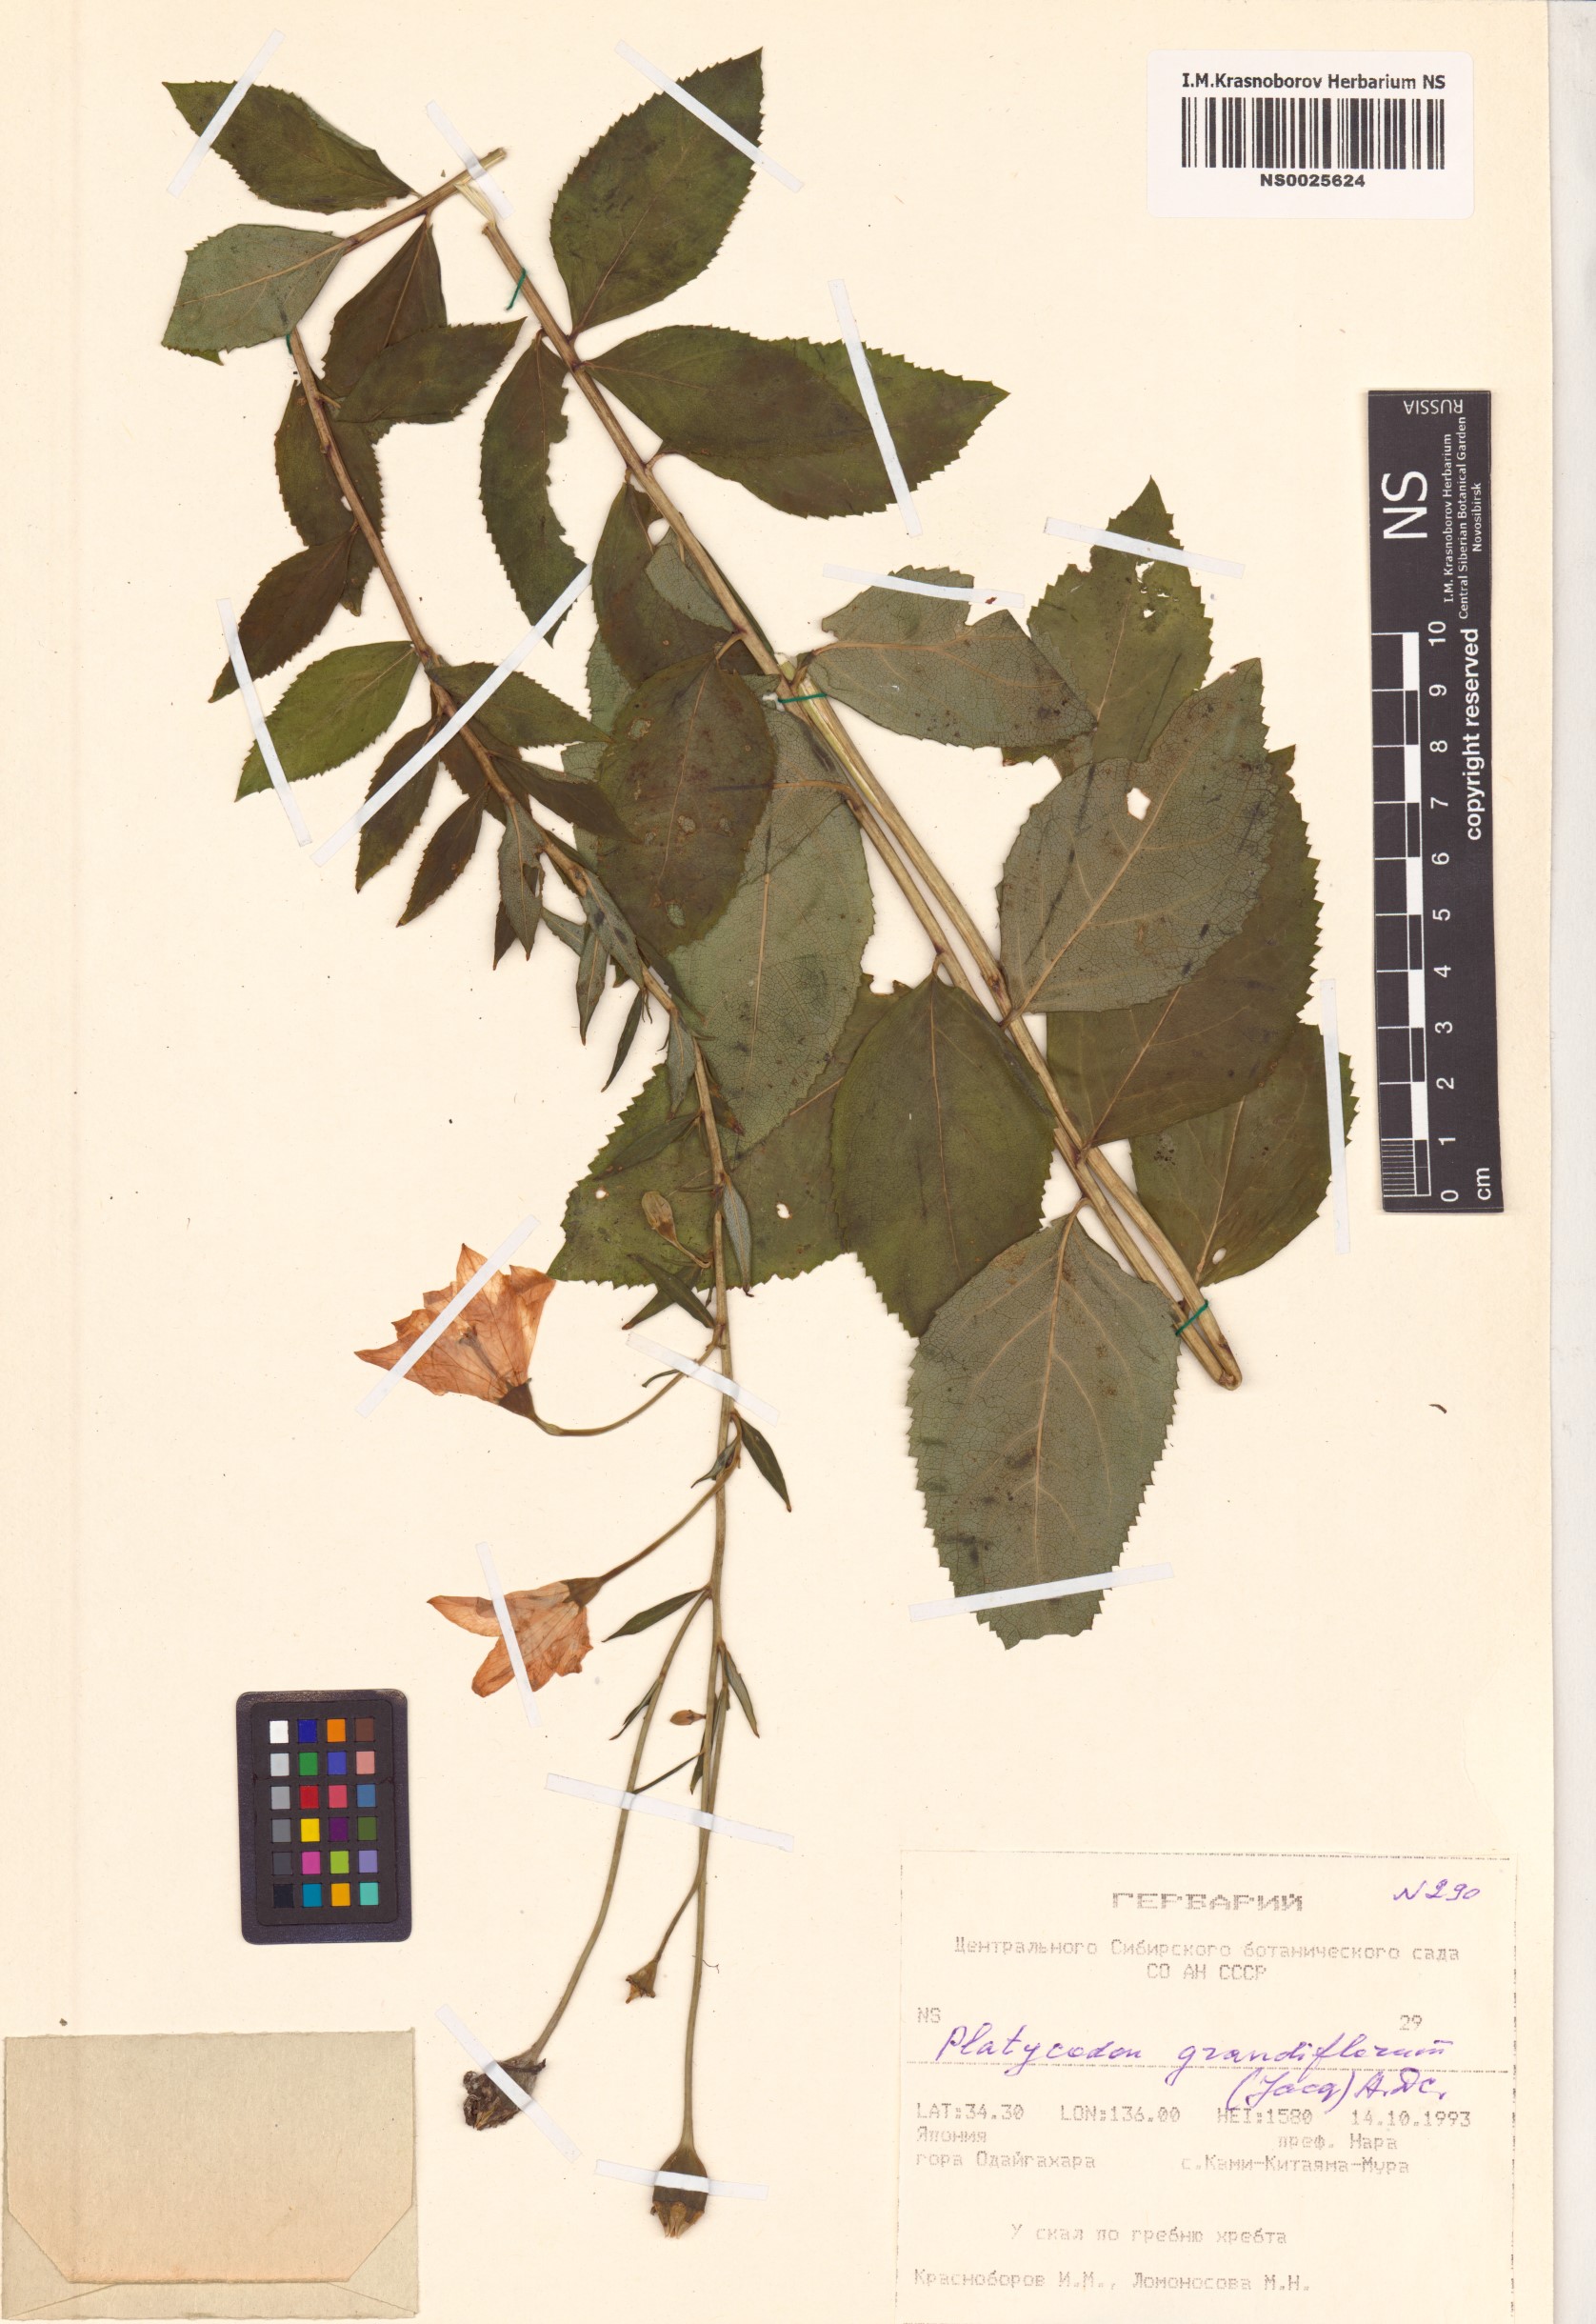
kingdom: Plantae
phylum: Tracheophyta
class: Magnoliopsida
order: Asterales
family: Campanulaceae
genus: Platycodon
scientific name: Platycodon grandiflorus
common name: Balloon-flower
